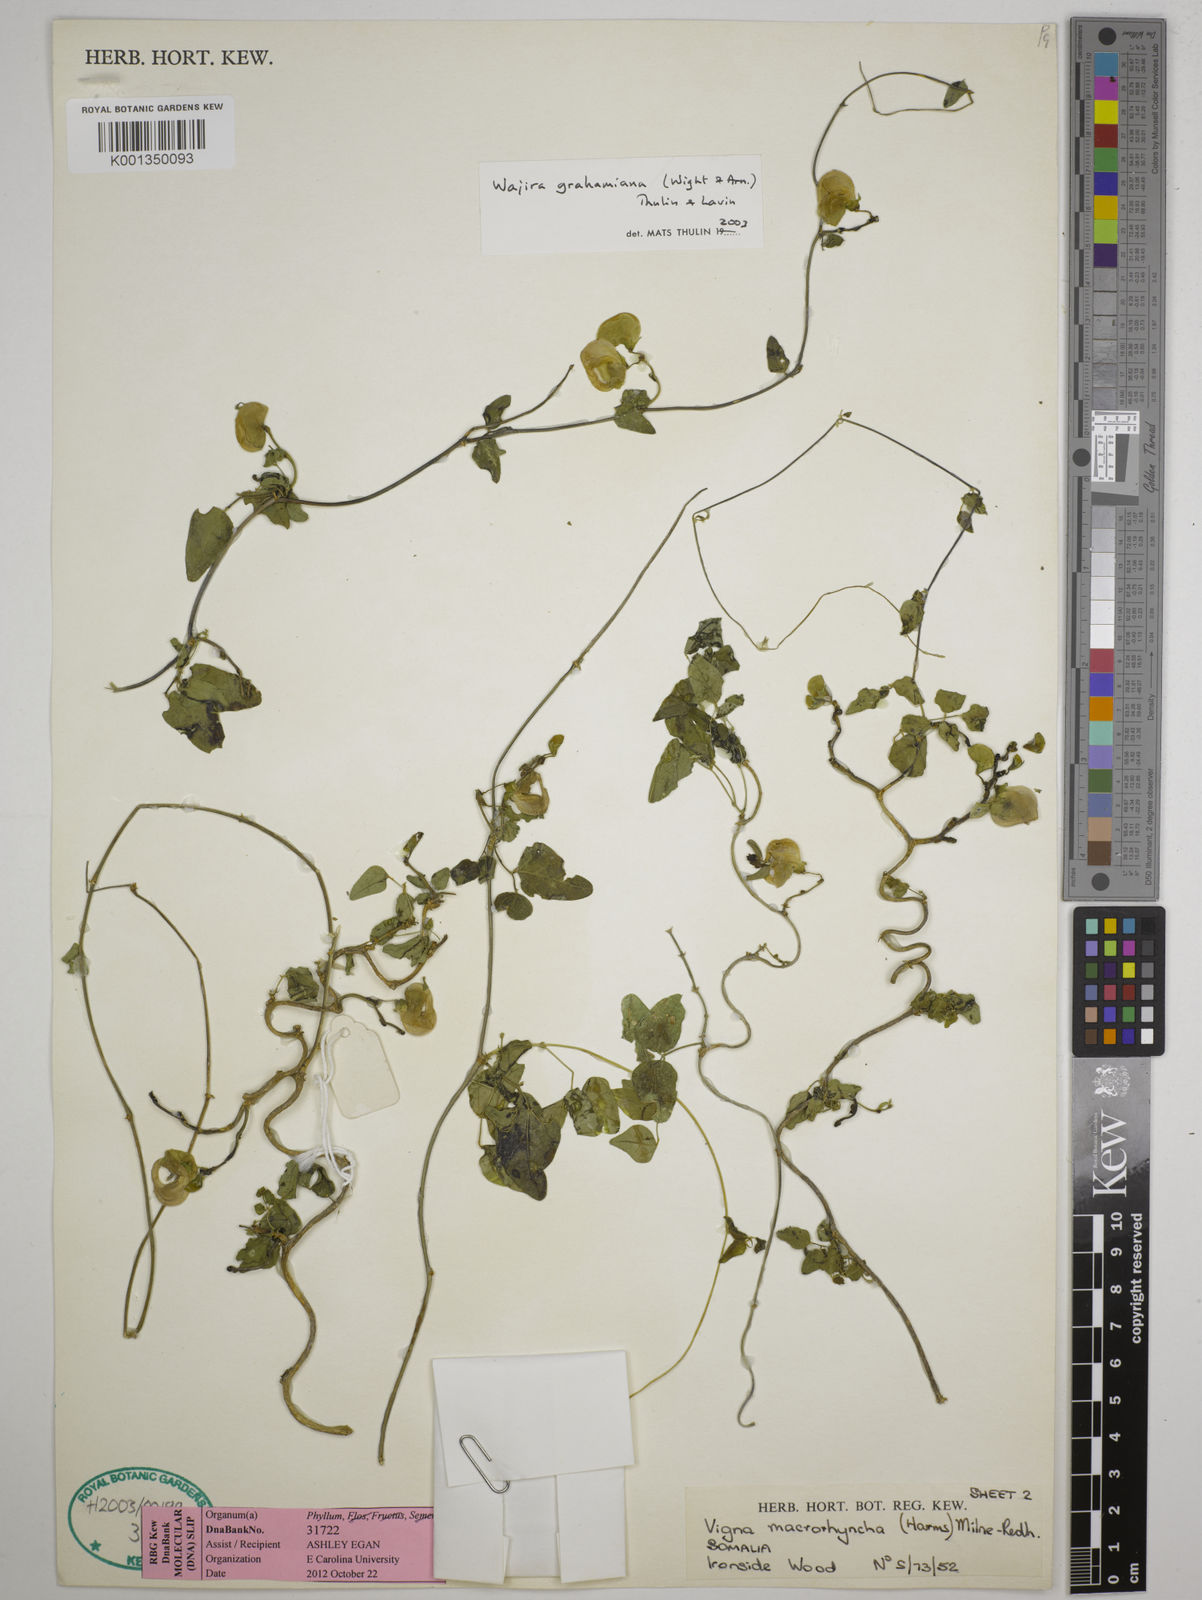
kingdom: Plantae
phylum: Tracheophyta
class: Magnoliopsida
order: Fabales
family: Fabaceae
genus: Wajira
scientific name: Wajira grahamiana
